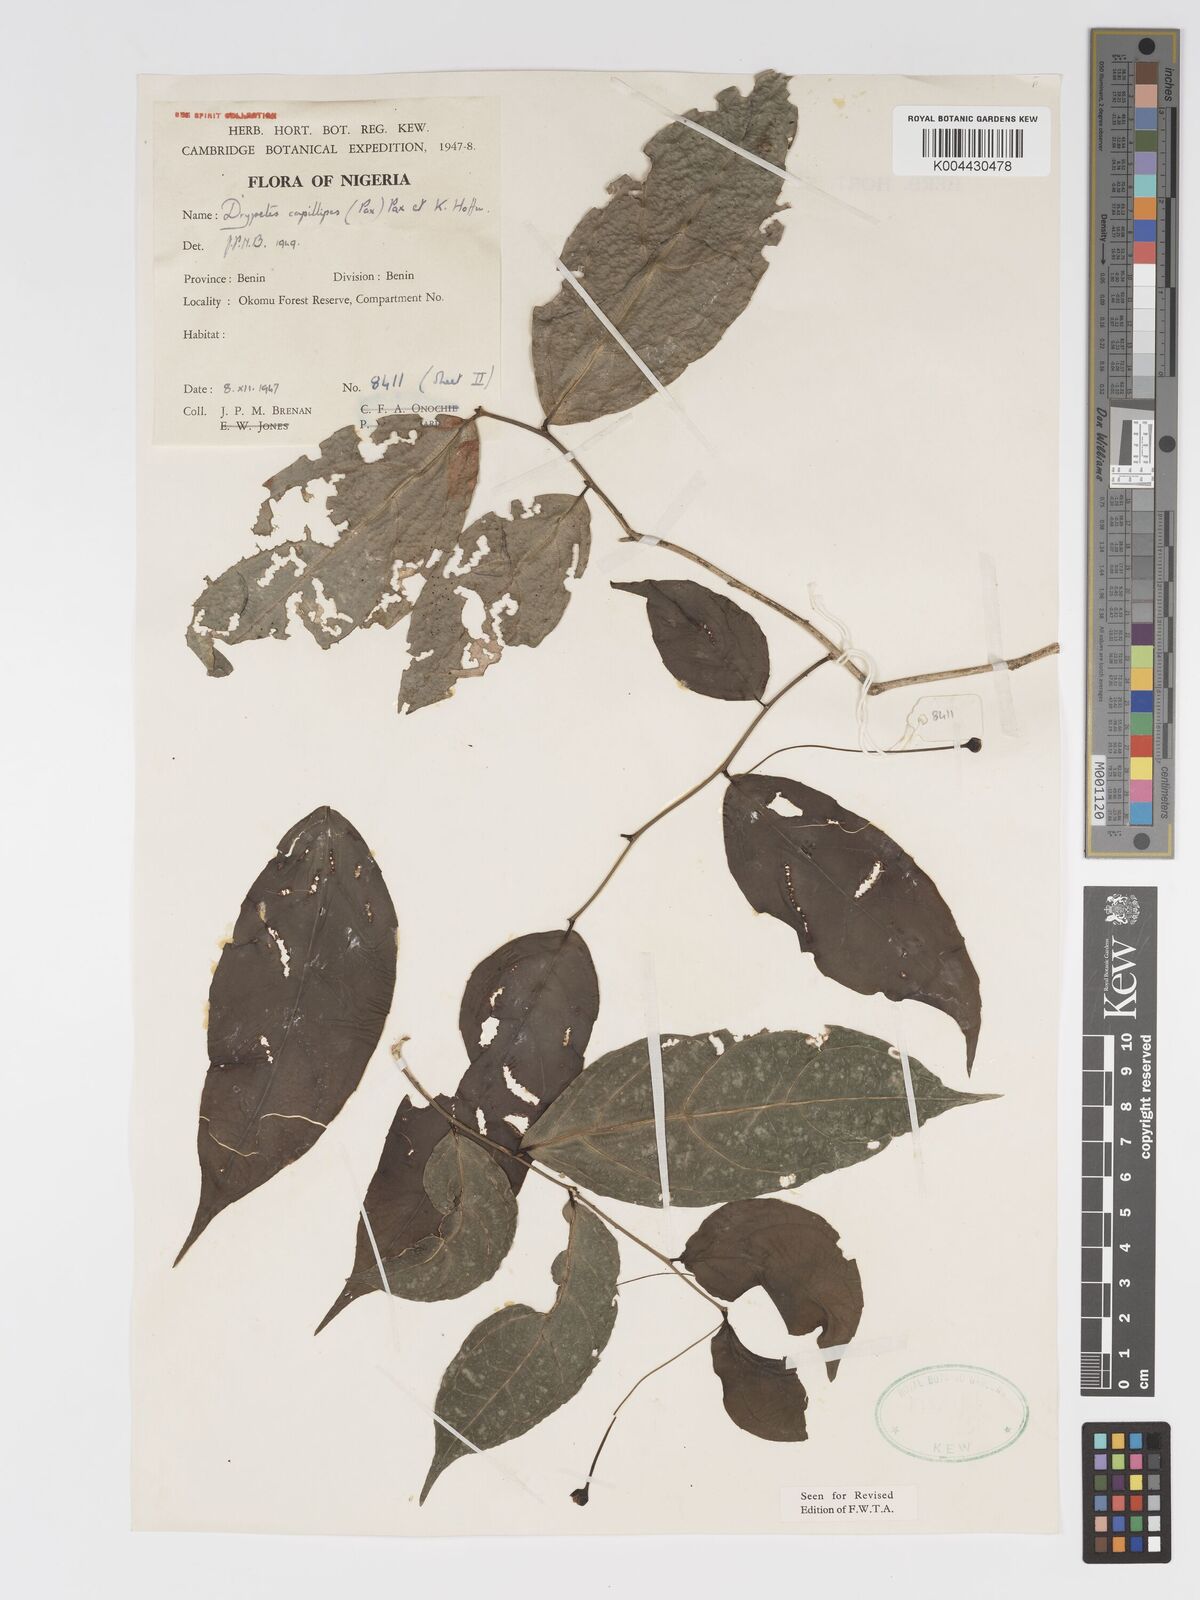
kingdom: Plantae
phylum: Tracheophyta
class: Magnoliopsida
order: Malpighiales
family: Putranjivaceae
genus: Drypetes
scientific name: Drypetes capillipes
